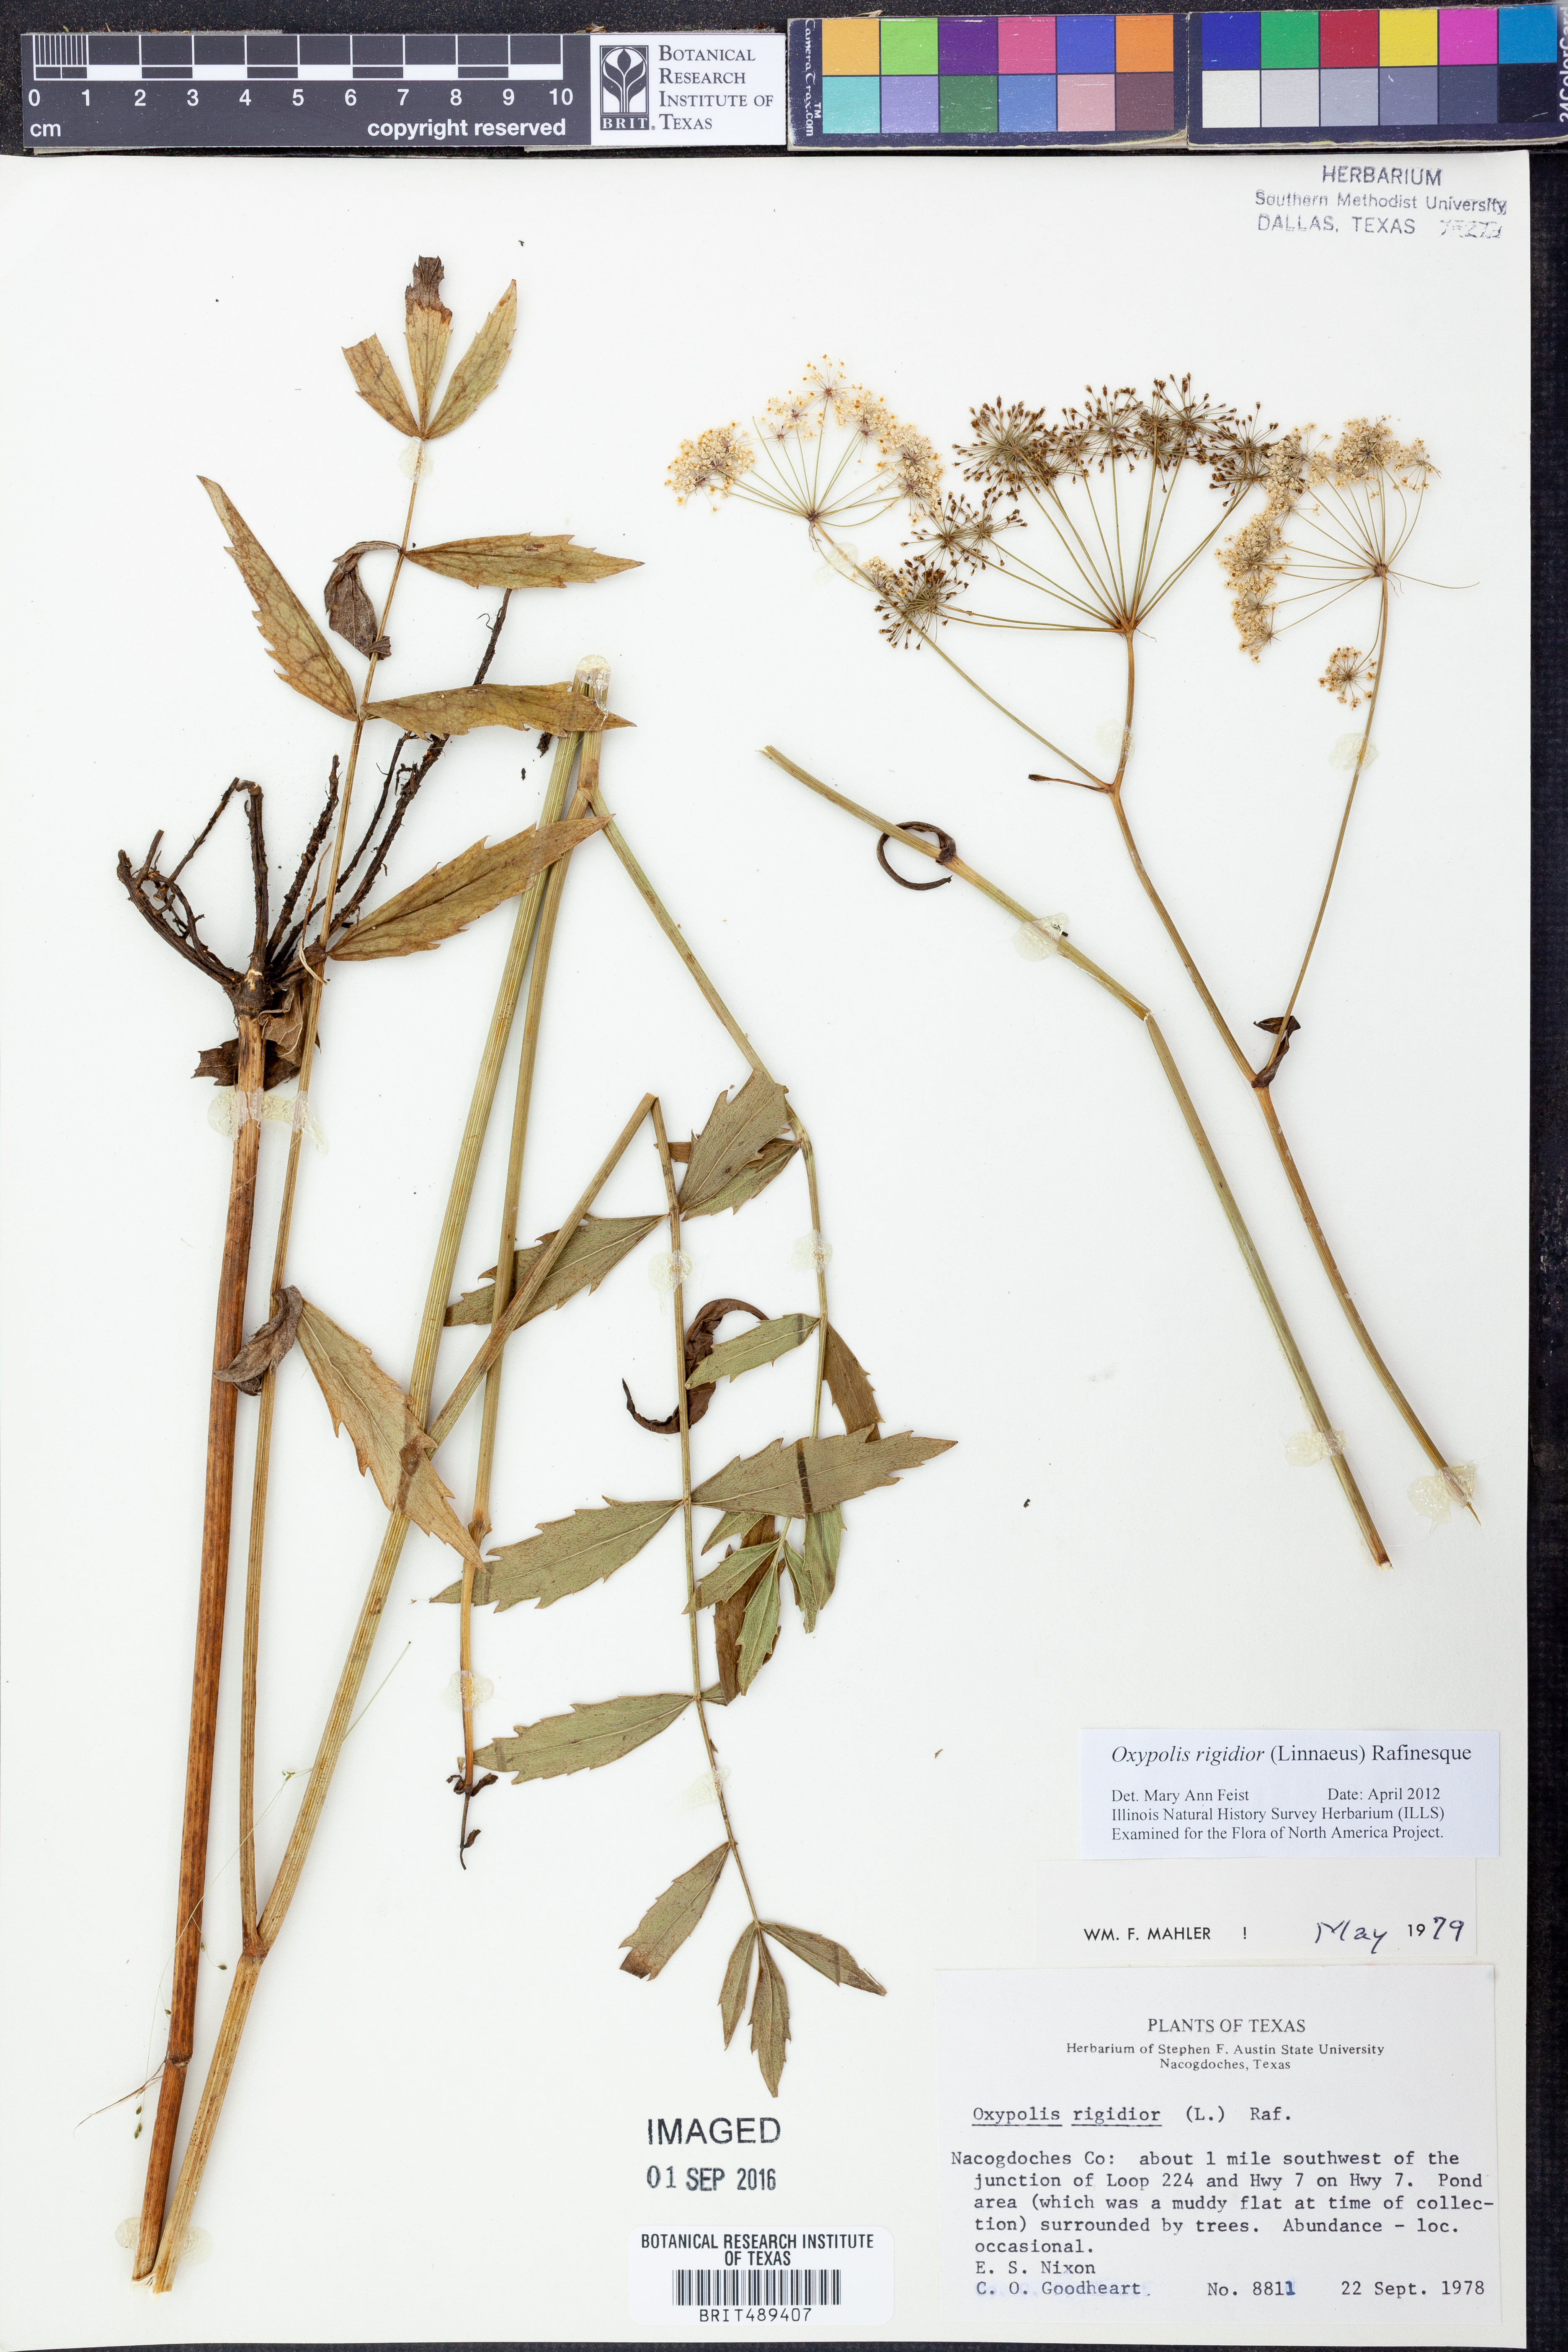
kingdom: Plantae
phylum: Tracheophyta
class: Magnoliopsida
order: Apiales
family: Apiaceae
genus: Oxypolis
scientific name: Oxypolis rigidior
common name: Cowbane
